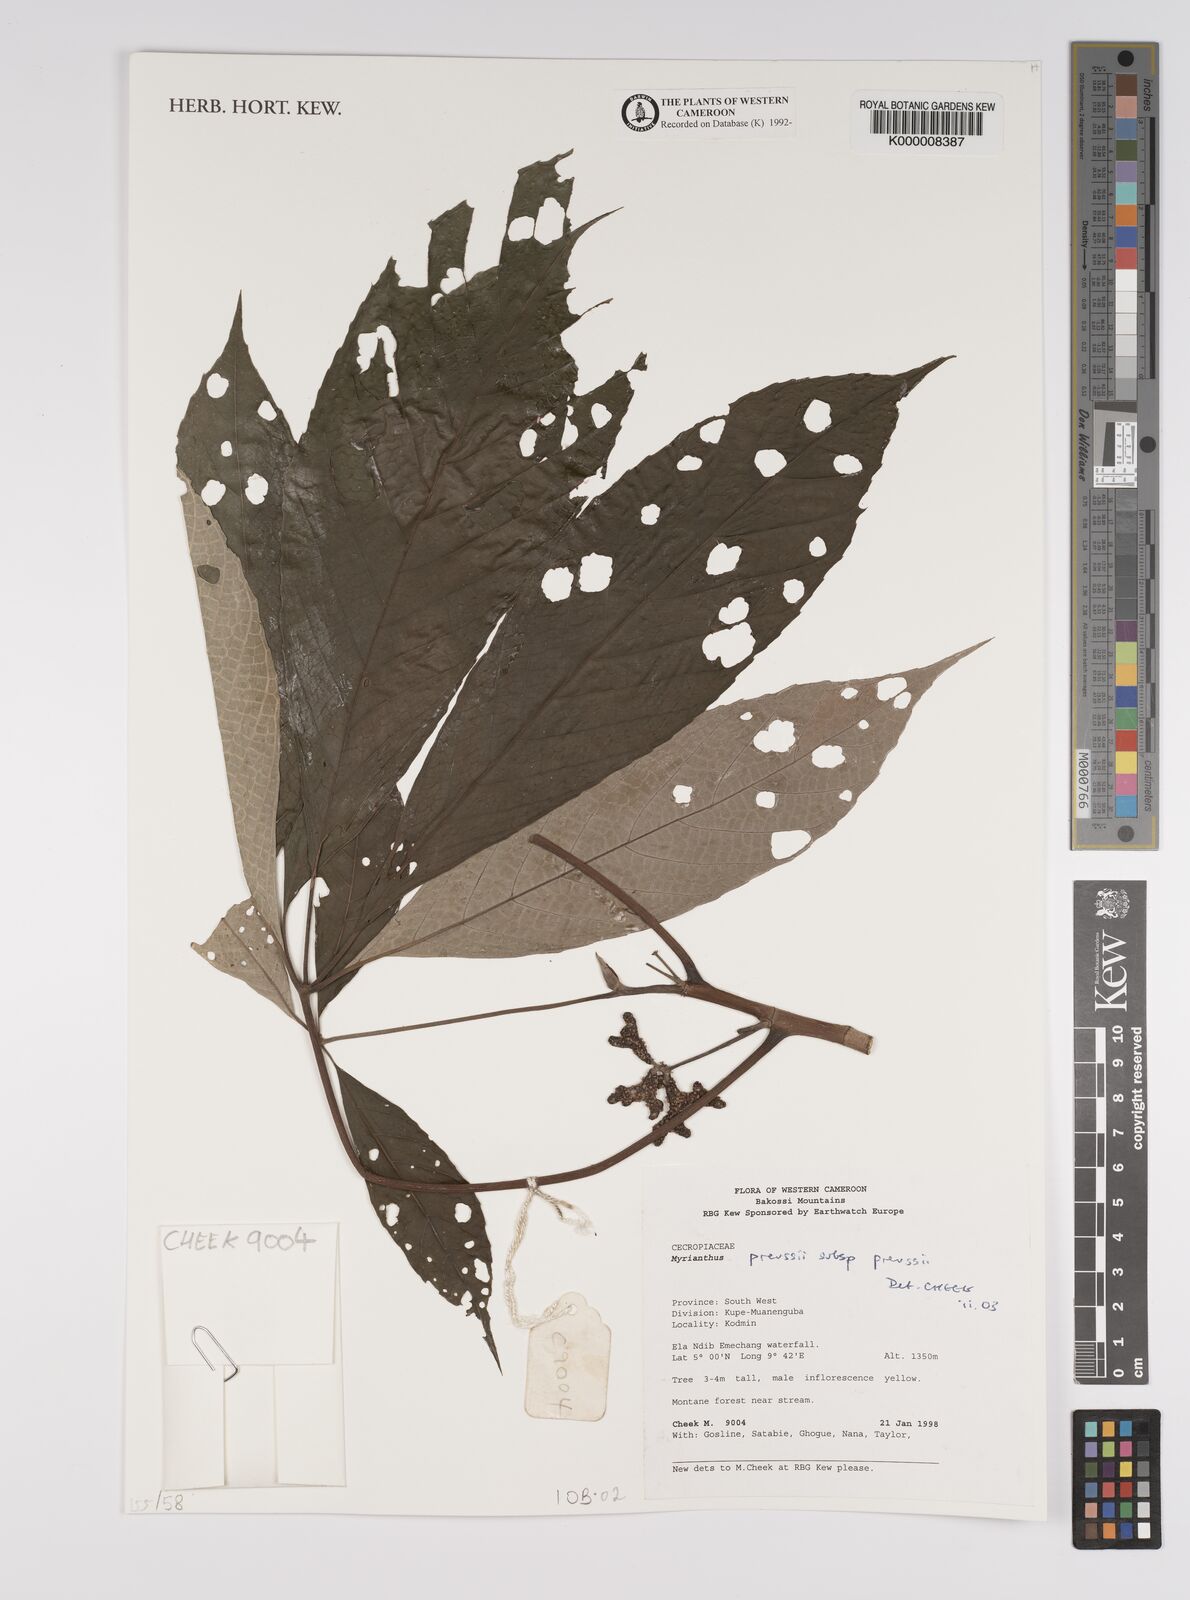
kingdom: Plantae
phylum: Tracheophyta
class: Magnoliopsida
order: Rosales
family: Urticaceae
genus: Myrianthus
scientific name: Myrianthus preussii
